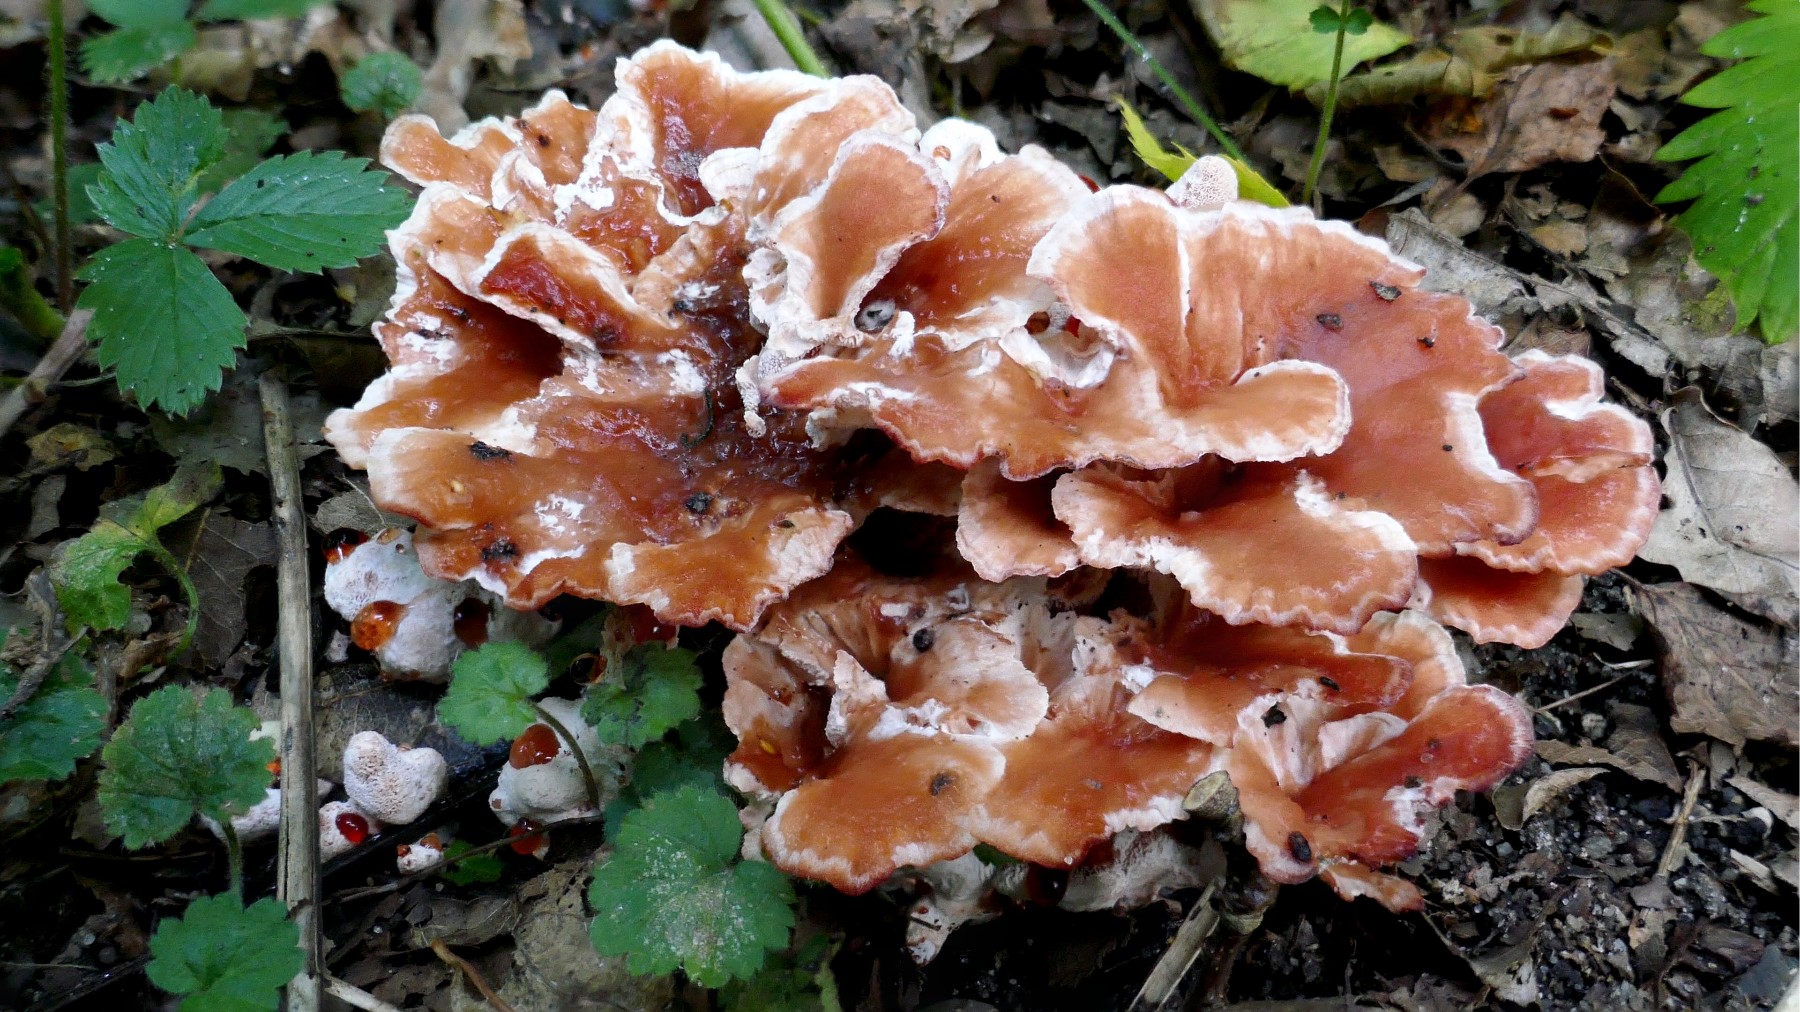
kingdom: Fungi
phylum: Basidiomycota
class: Agaricomycetes
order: Polyporales
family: Podoscyphaceae
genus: Abortiporus
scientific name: Abortiporus biennis
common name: rødmende pjalteporesvamp
